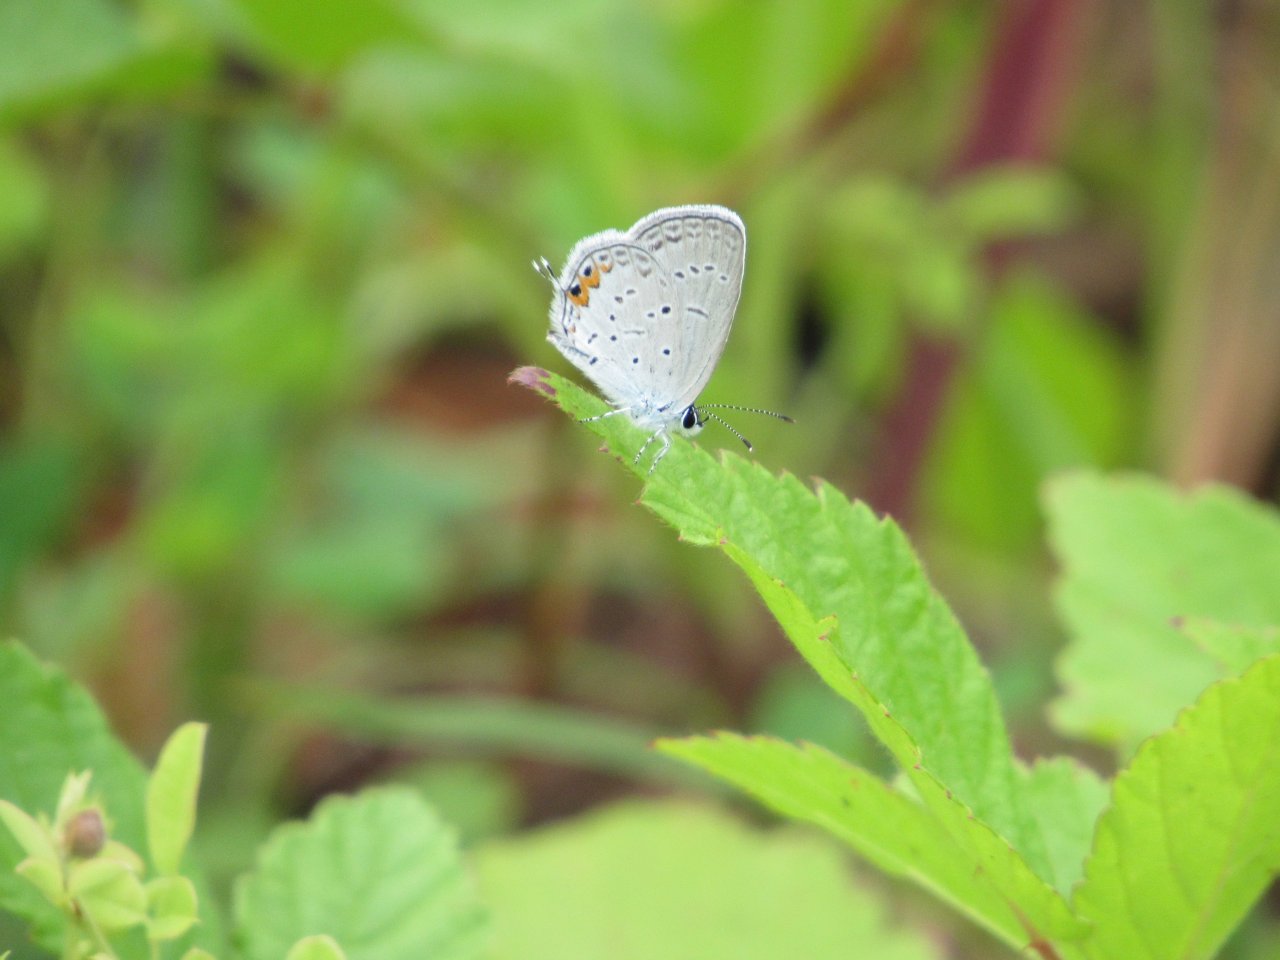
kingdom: Animalia
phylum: Arthropoda
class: Insecta
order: Lepidoptera
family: Lycaenidae
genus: Elkalyce
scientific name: Elkalyce comyntas
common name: Eastern Tailed-Blue
